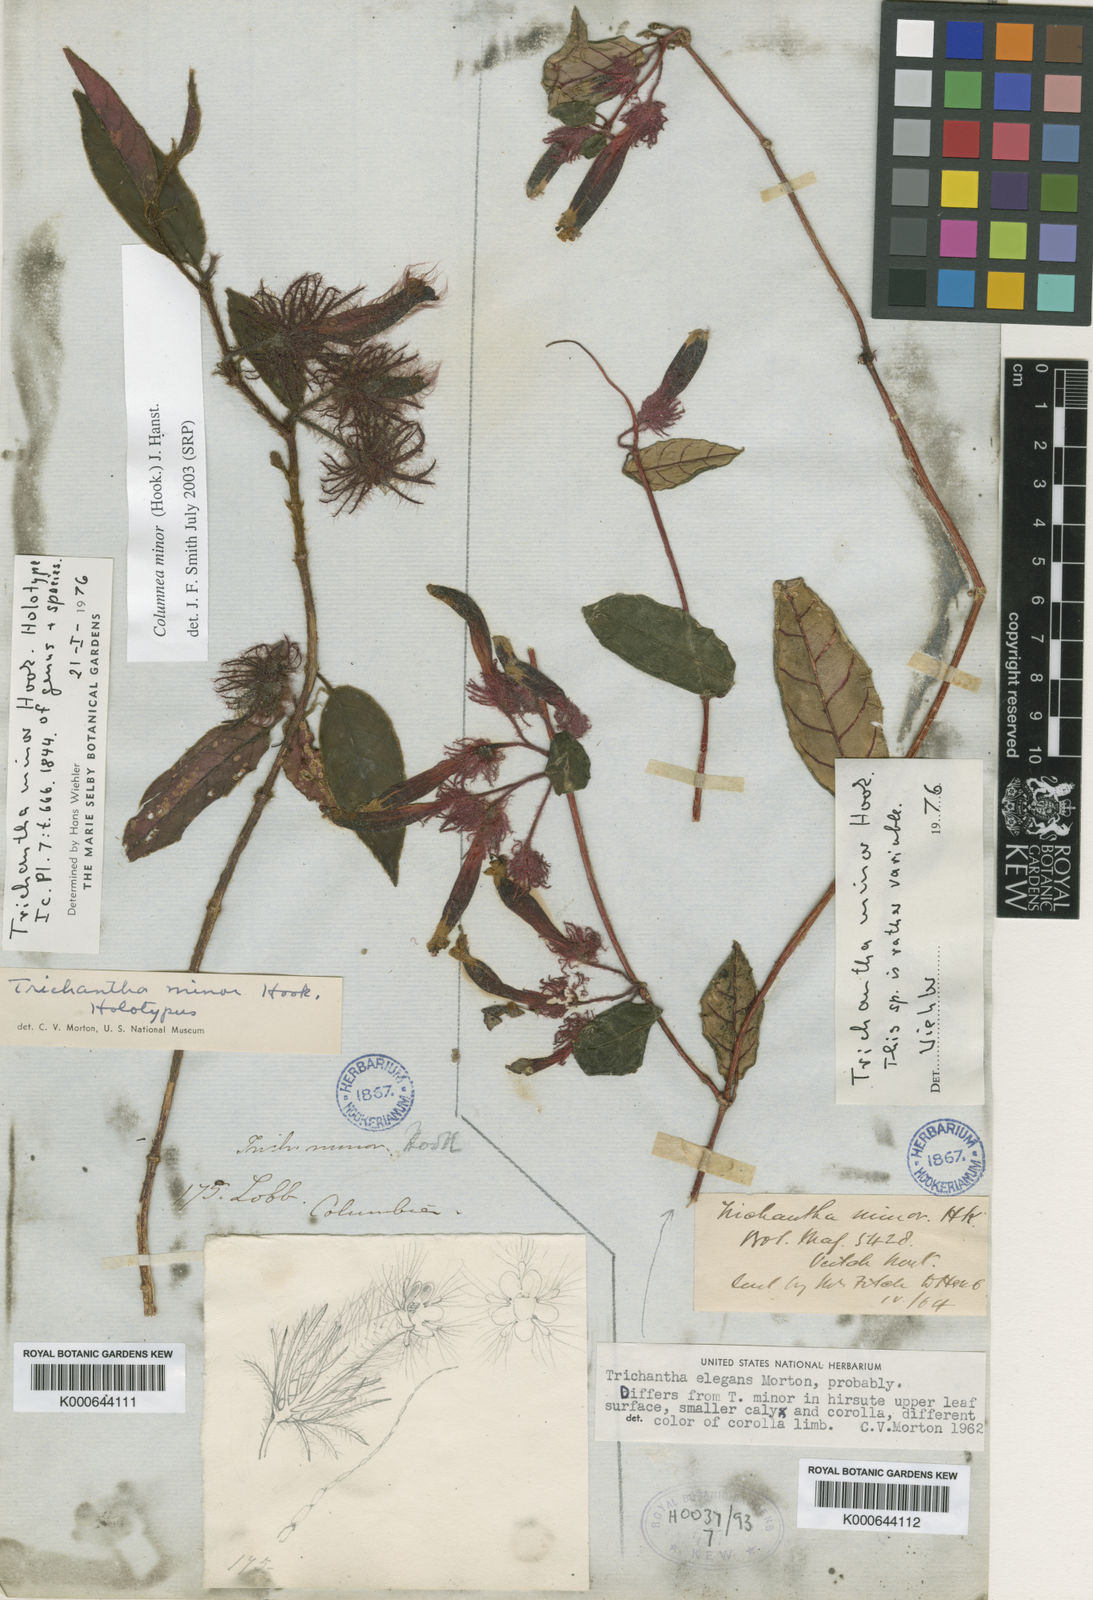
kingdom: Plantae
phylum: Tracheophyta
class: Magnoliopsida
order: Lamiales
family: Gesneriaceae
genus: Columnea
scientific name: Columnea minor
